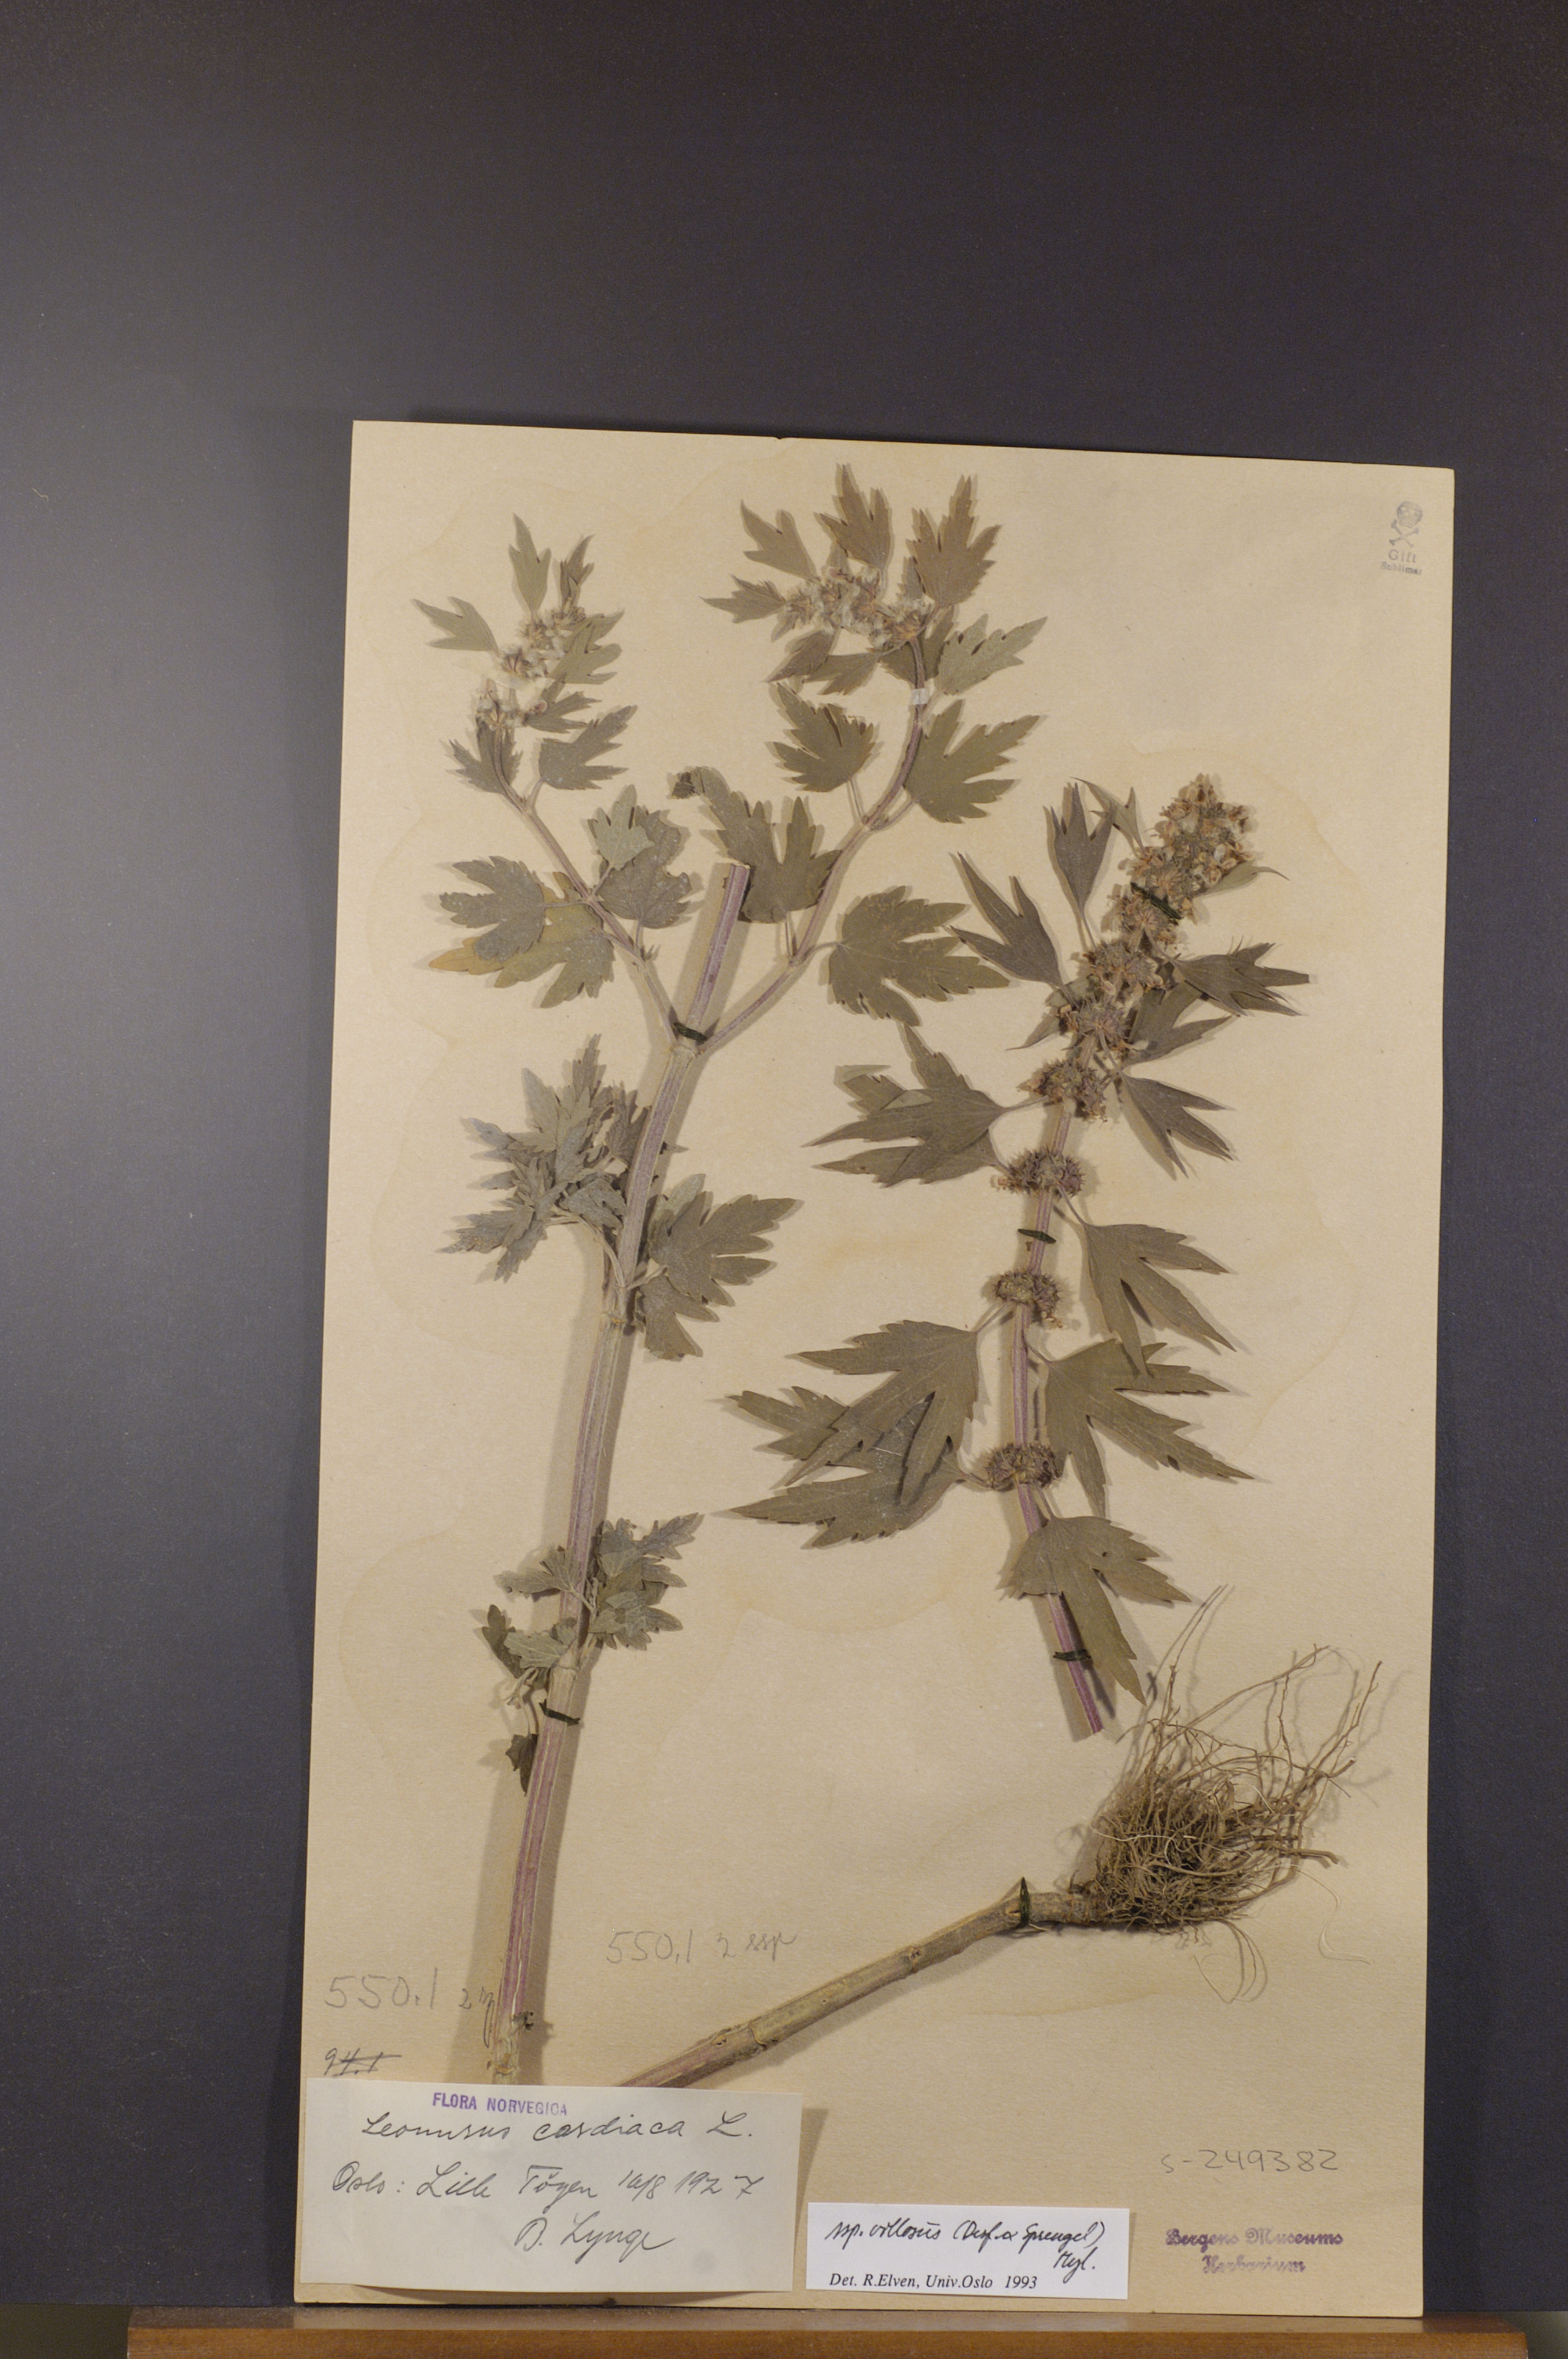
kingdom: Plantae
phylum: Tracheophyta
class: Magnoliopsida
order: Lamiales
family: Lamiaceae
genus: Leonurus
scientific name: Leonurus quinquelobatus
